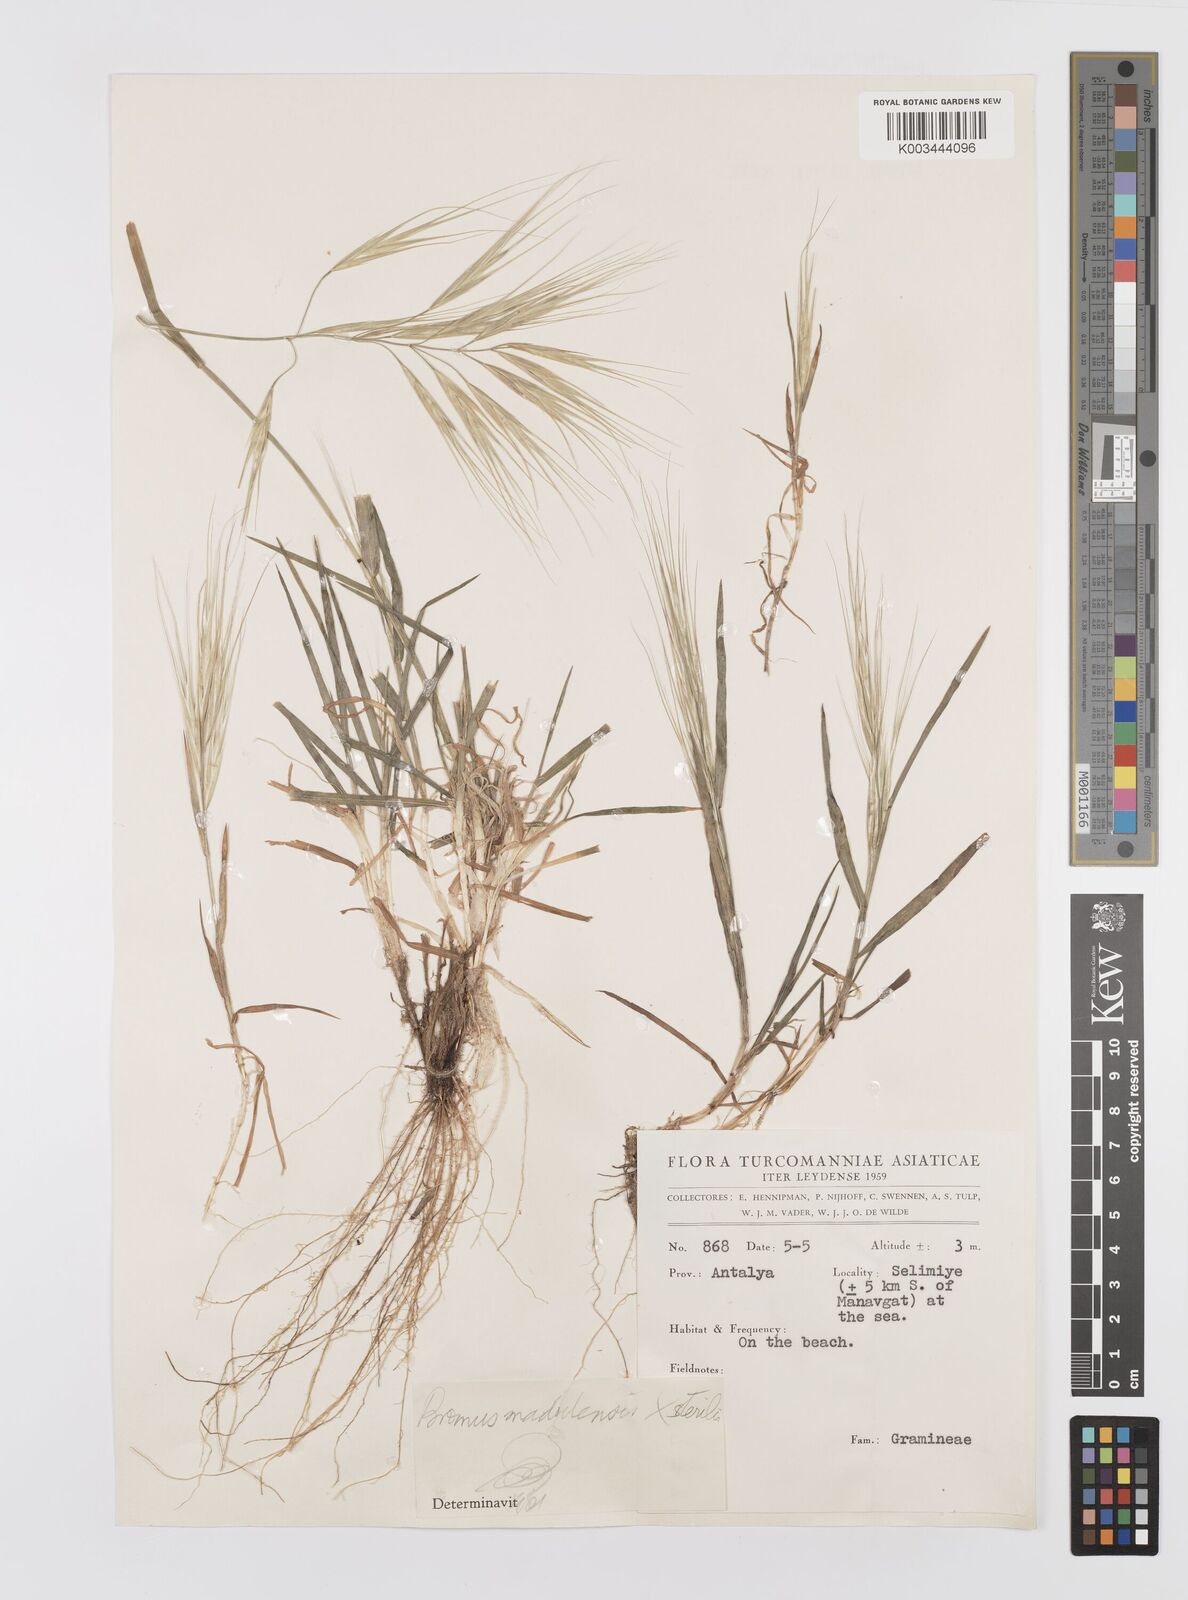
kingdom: Plantae
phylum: Tracheophyta
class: Liliopsida
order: Poales
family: Poaceae
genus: Bromus
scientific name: Bromus madritensis
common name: Compact brome
